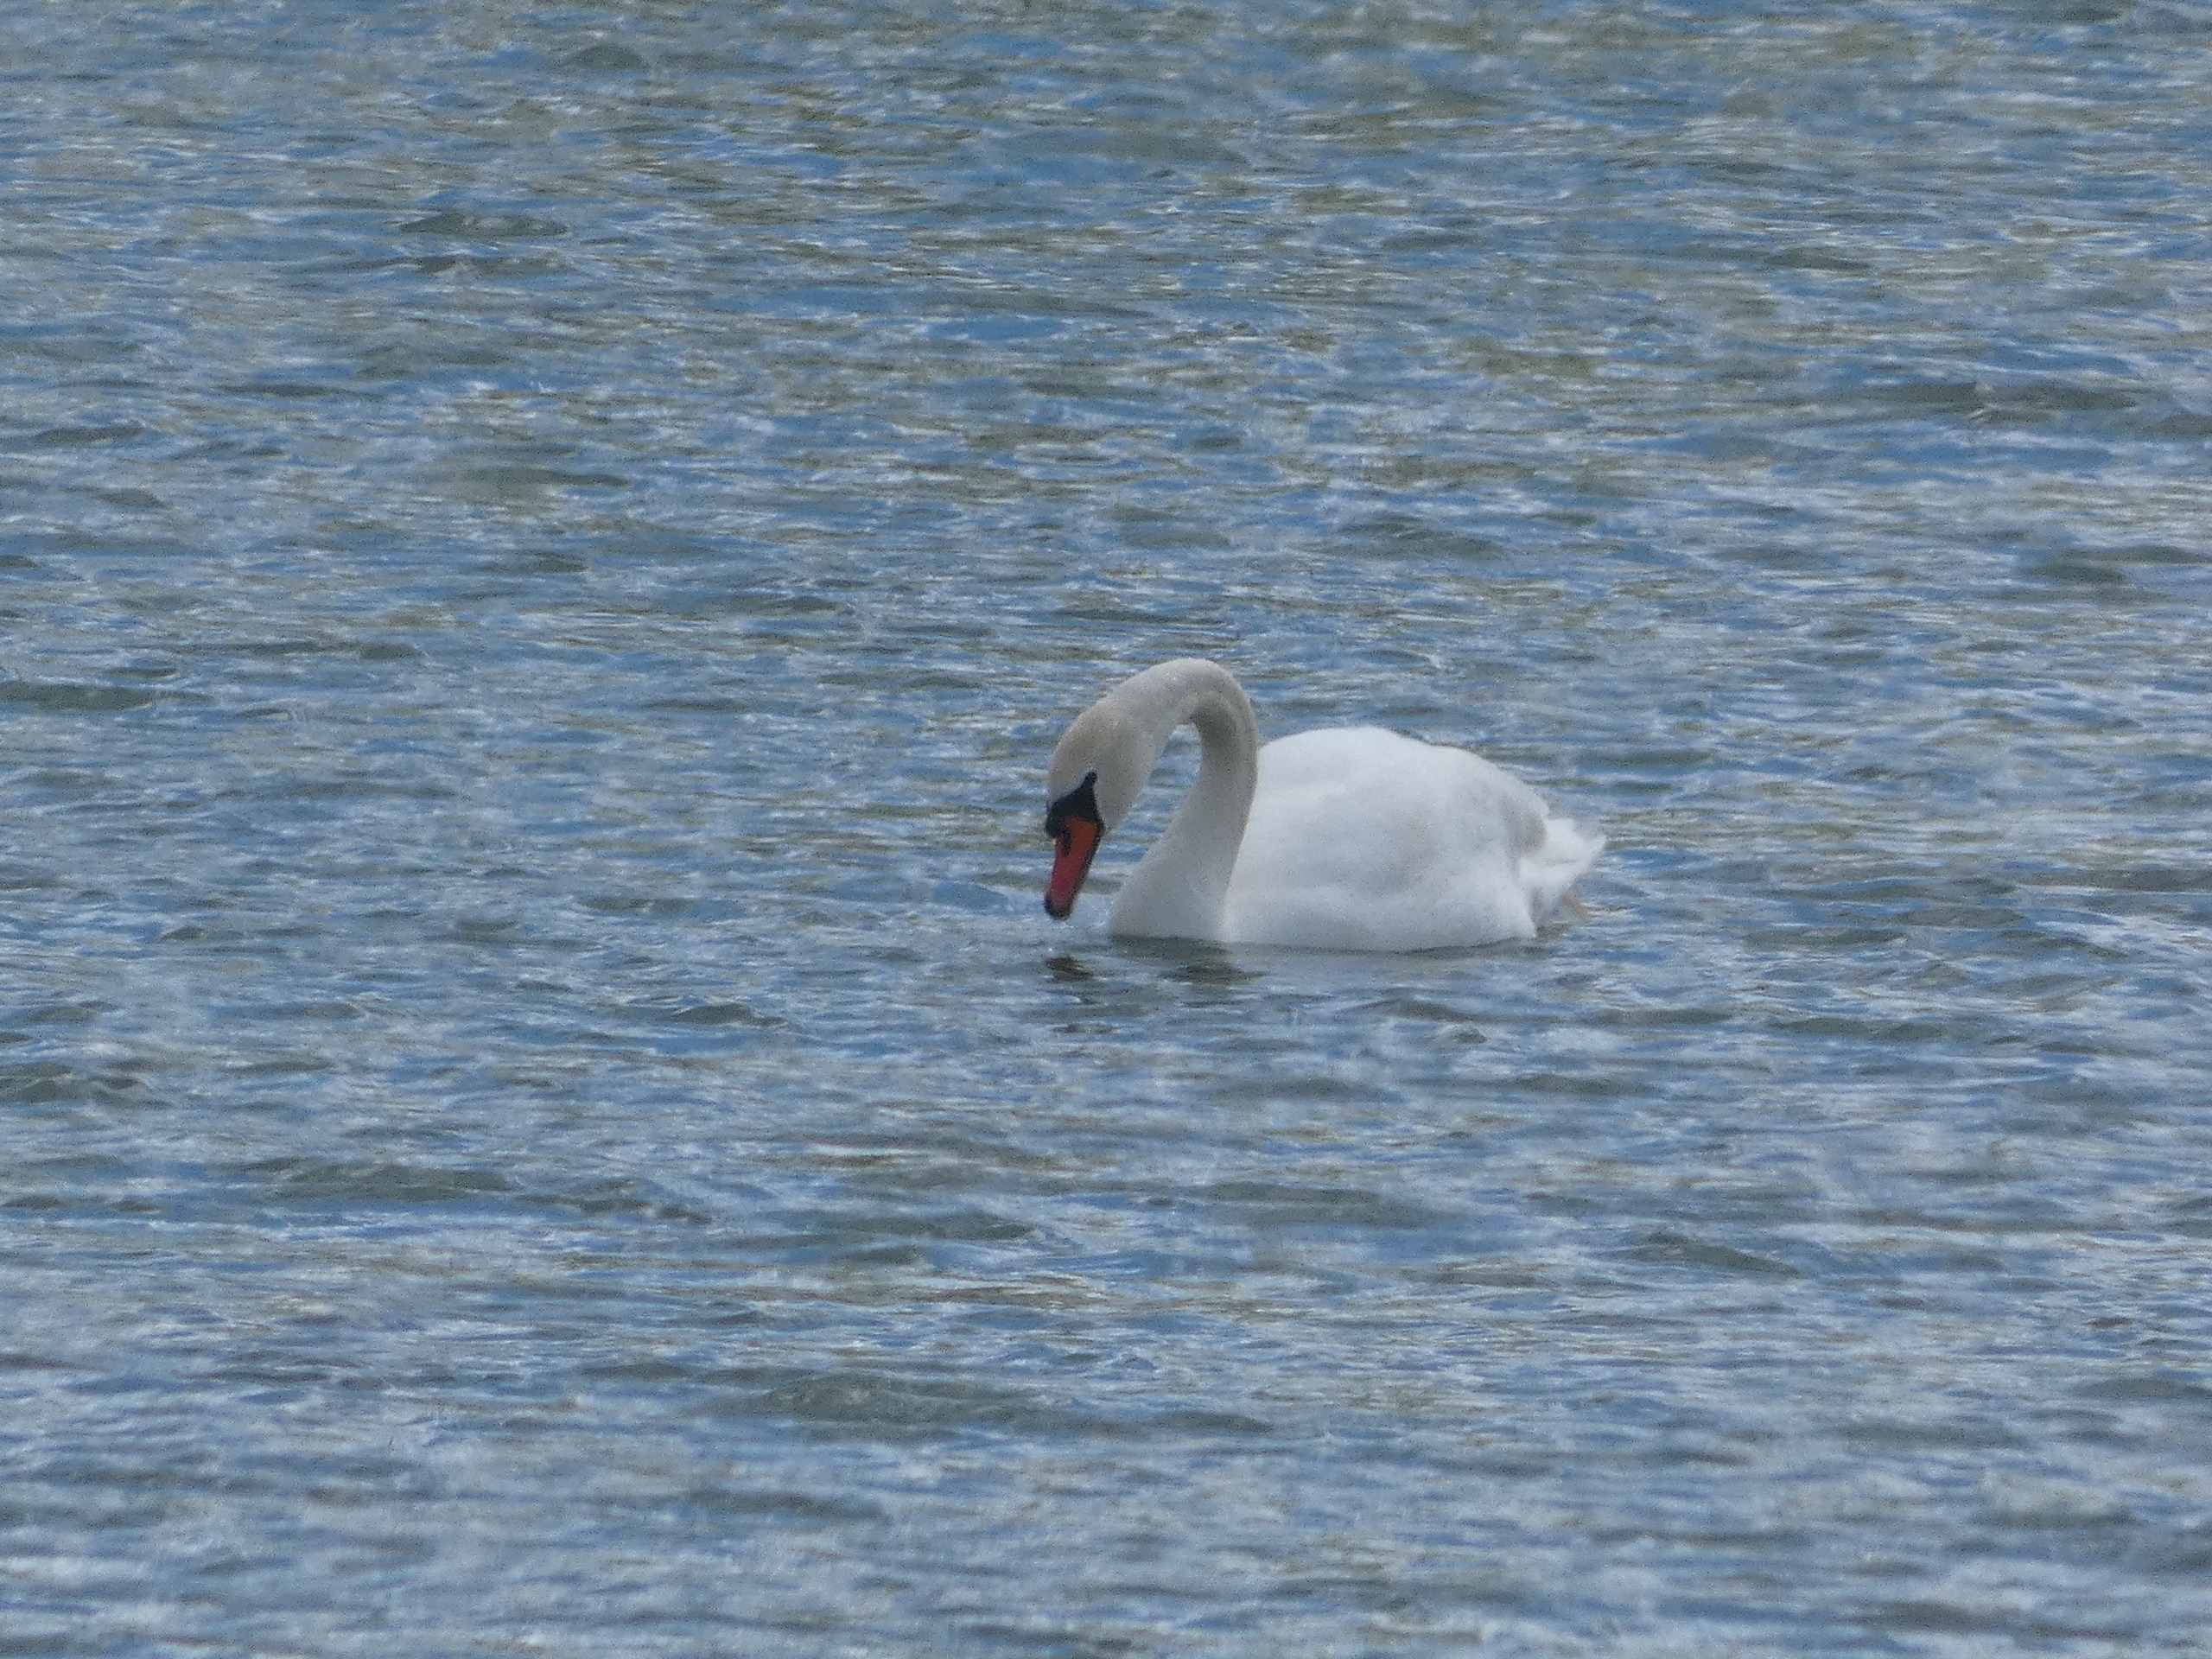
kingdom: Animalia
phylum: Chordata
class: Aves
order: Anseriformes
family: Anatidae
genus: Cygnus
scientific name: Cygnus olor
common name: Knopsvane
